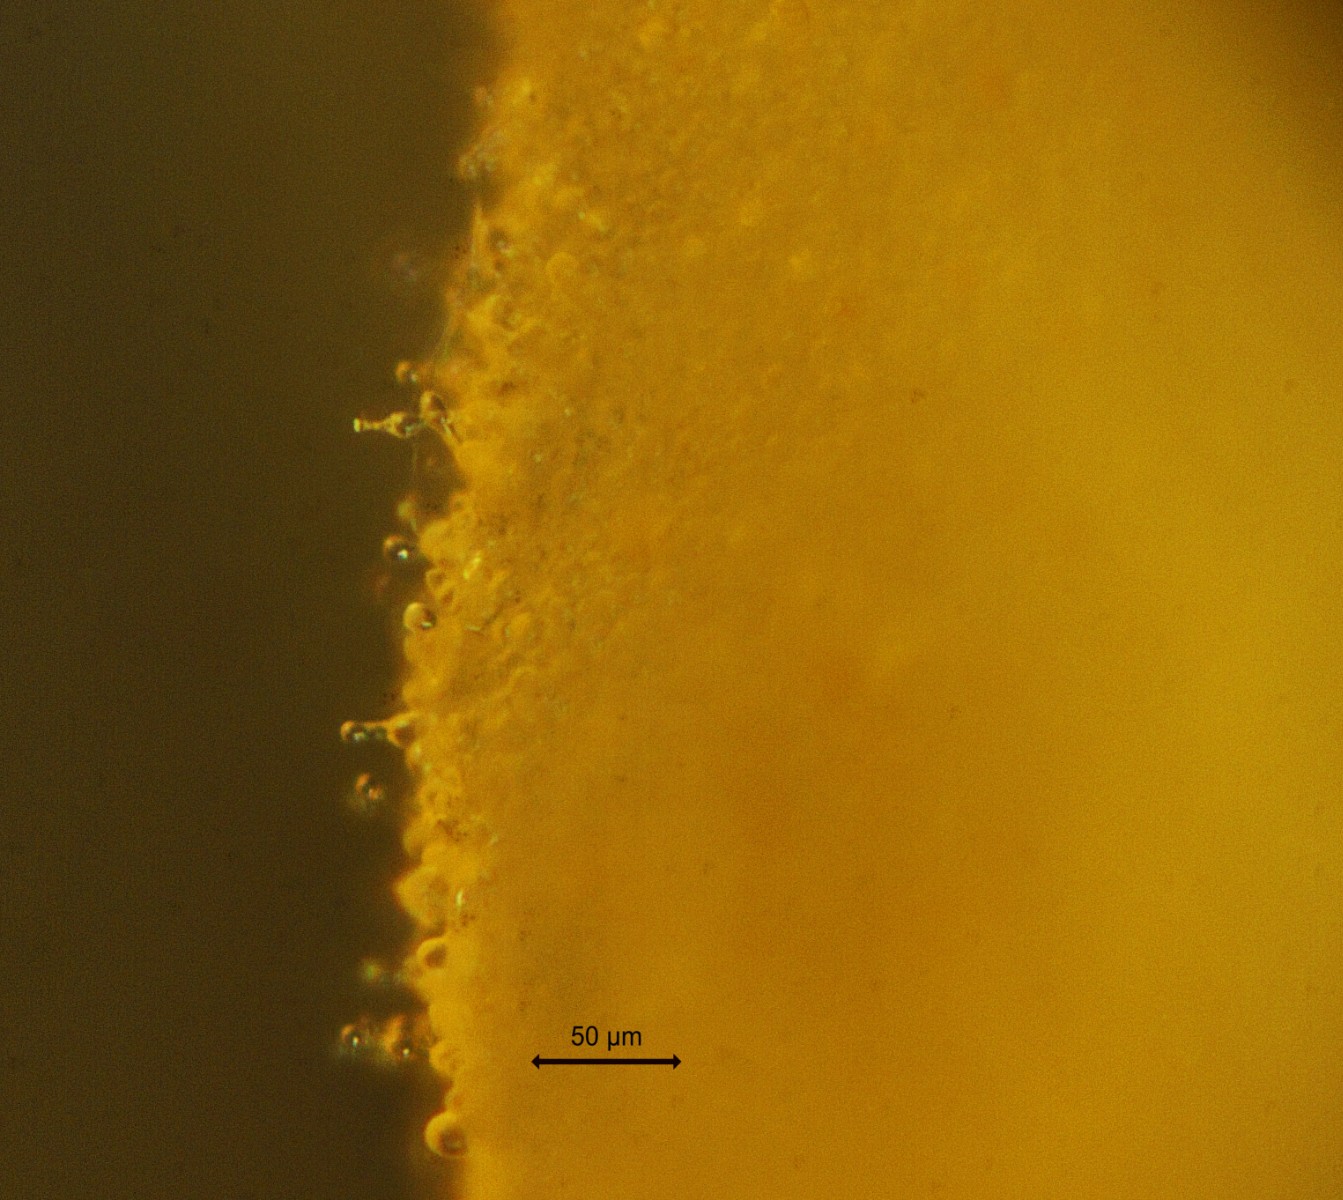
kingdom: Fungi
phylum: Basidiomycota
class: Agaricomycetes
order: Agaricales
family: Hymenogastraceae
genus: Galerina
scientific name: Galerina atkinsoniana
